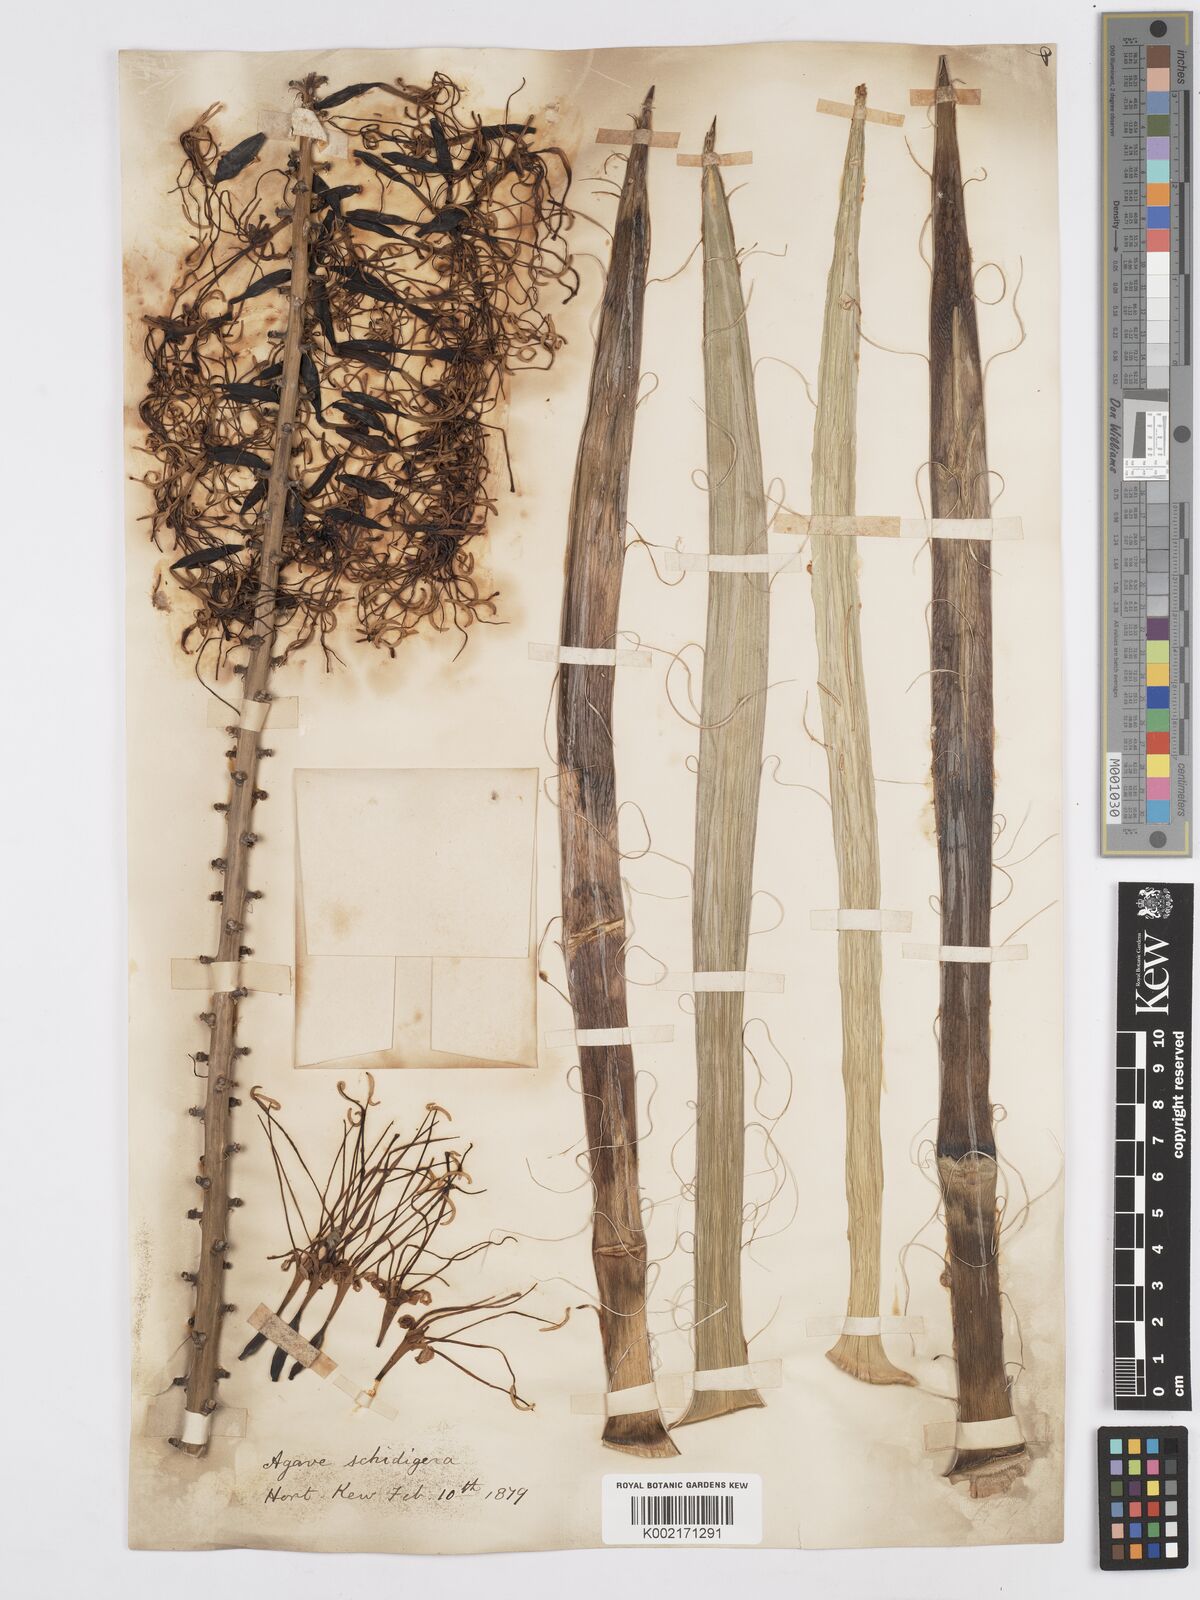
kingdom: Plantae
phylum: Tracheophyta
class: Liliopsida
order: Asparagales
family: Asparagaceae
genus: Agave
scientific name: Agave schidigera
